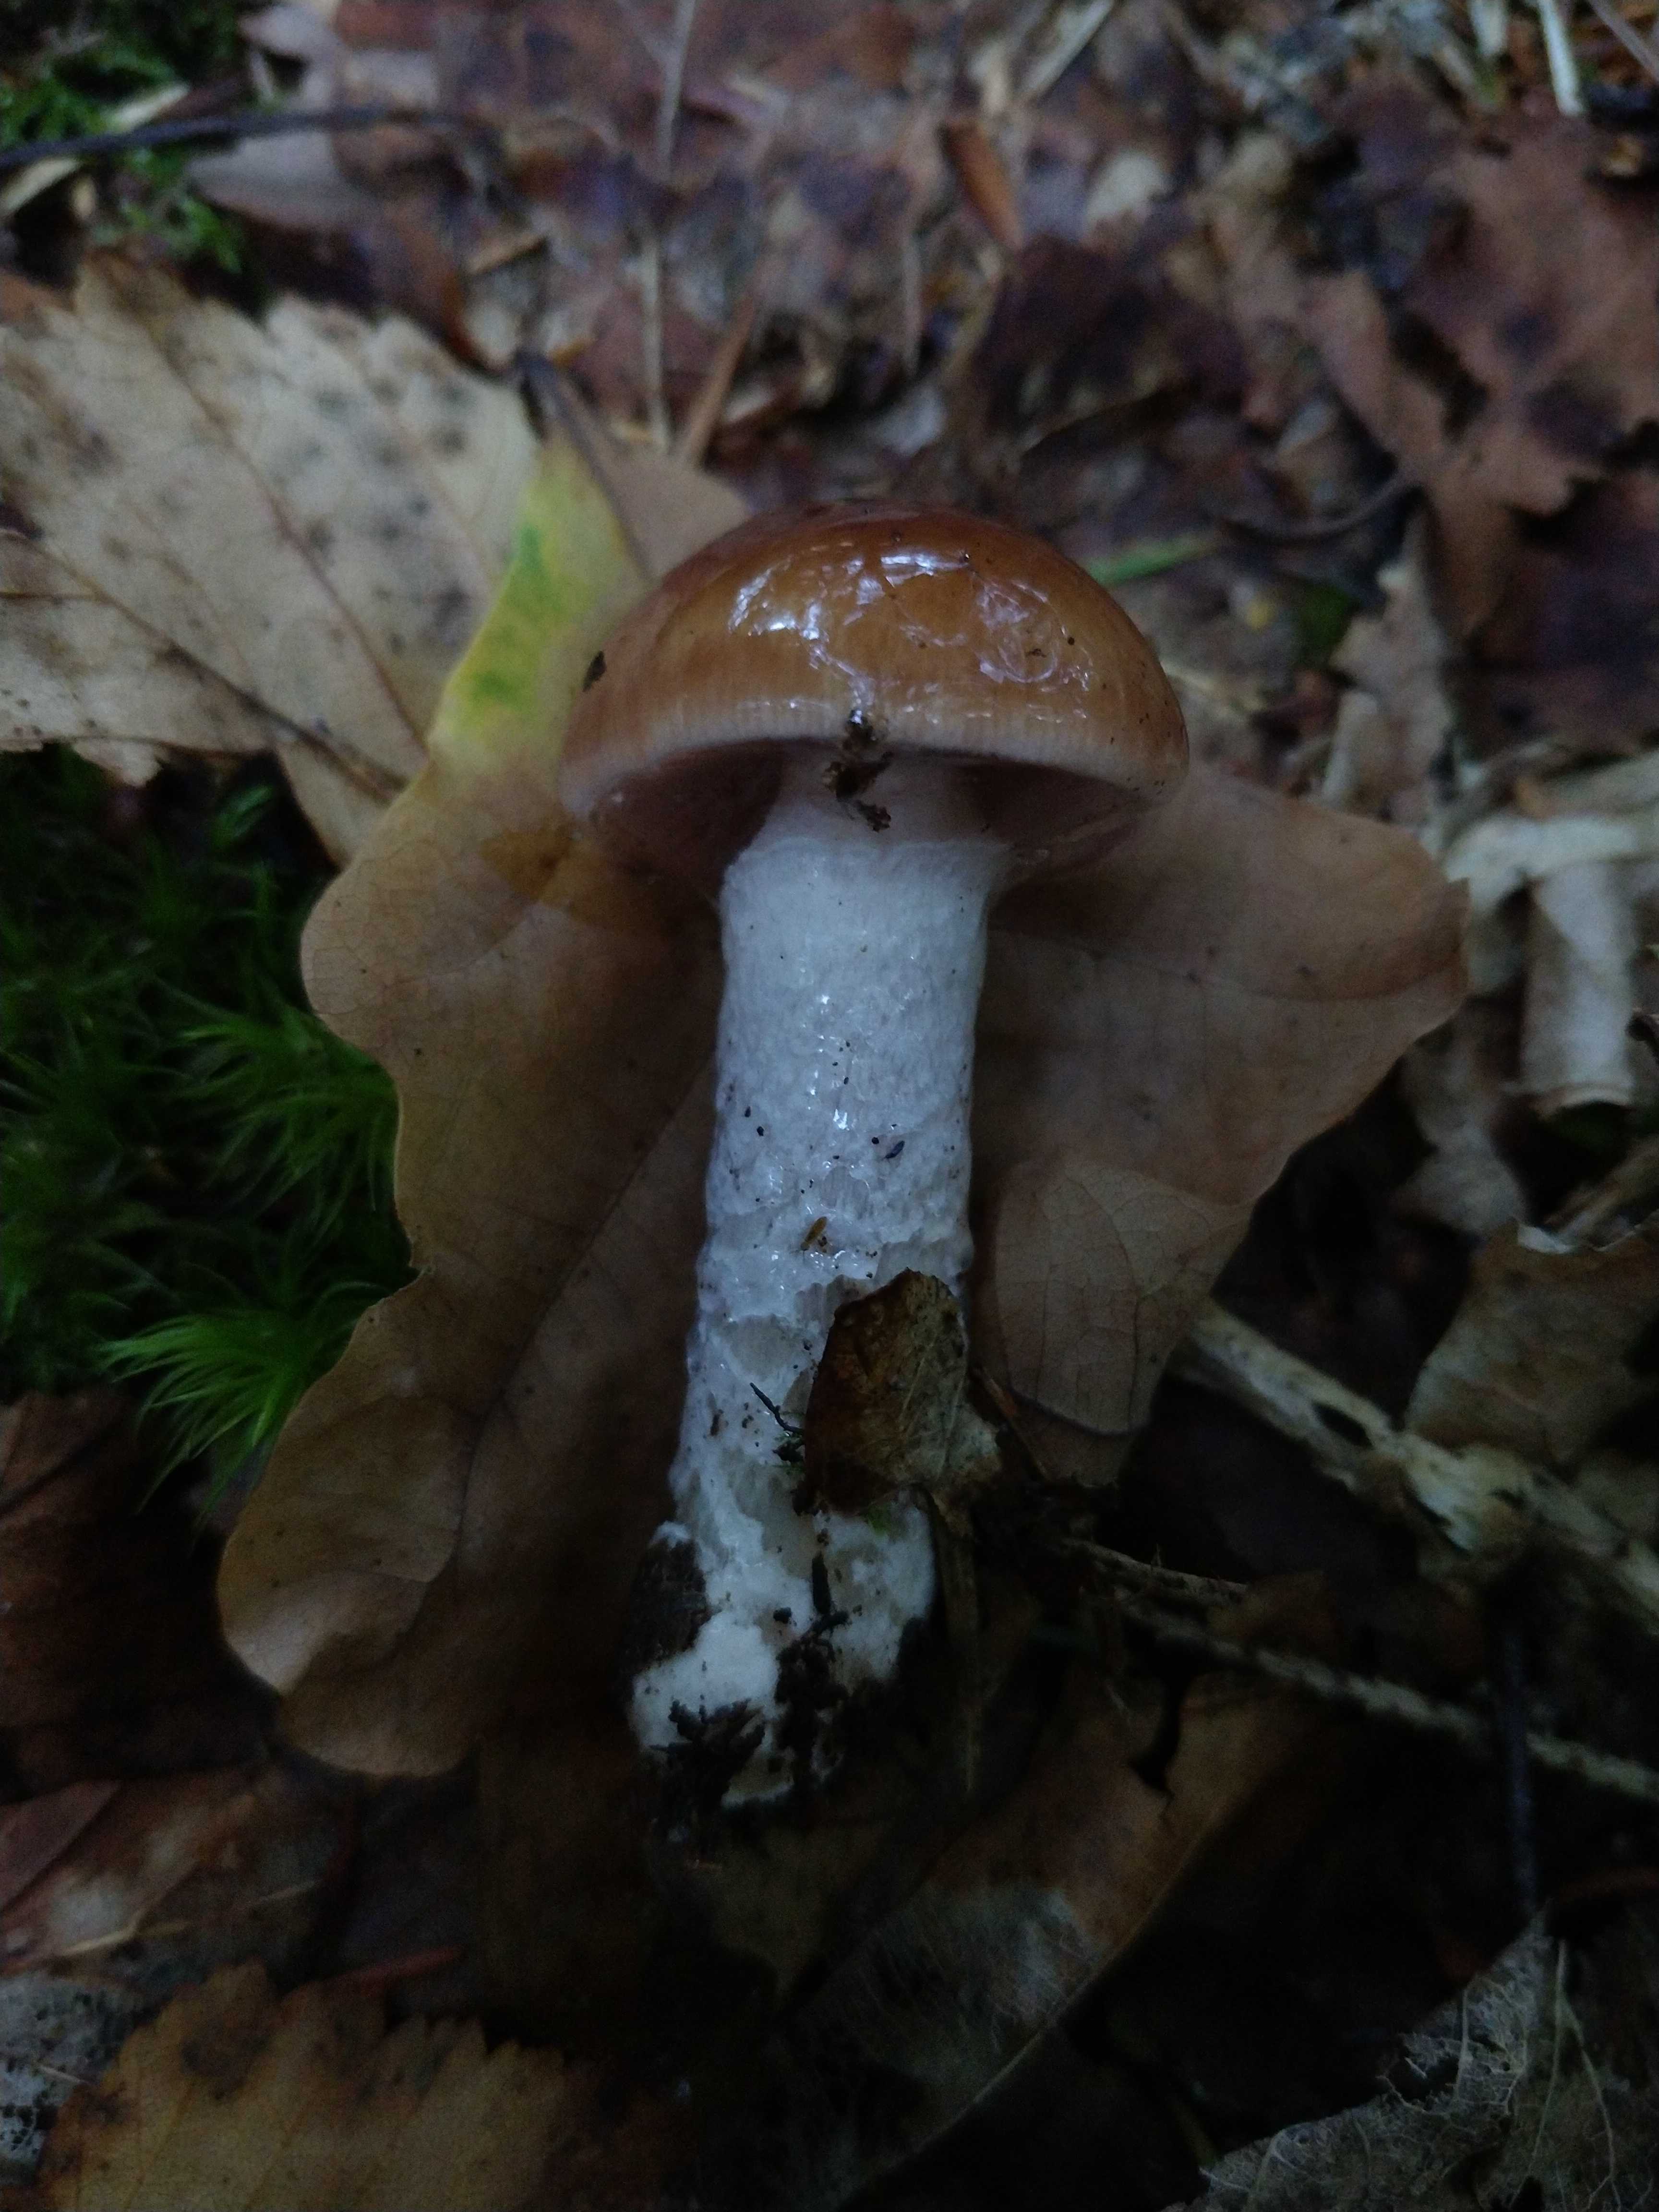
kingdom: Fungi
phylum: Basidiomycota
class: Agaricomycetes
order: Agaricales
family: Cortinariaceae
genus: Cortinarius
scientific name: Cortinarius
